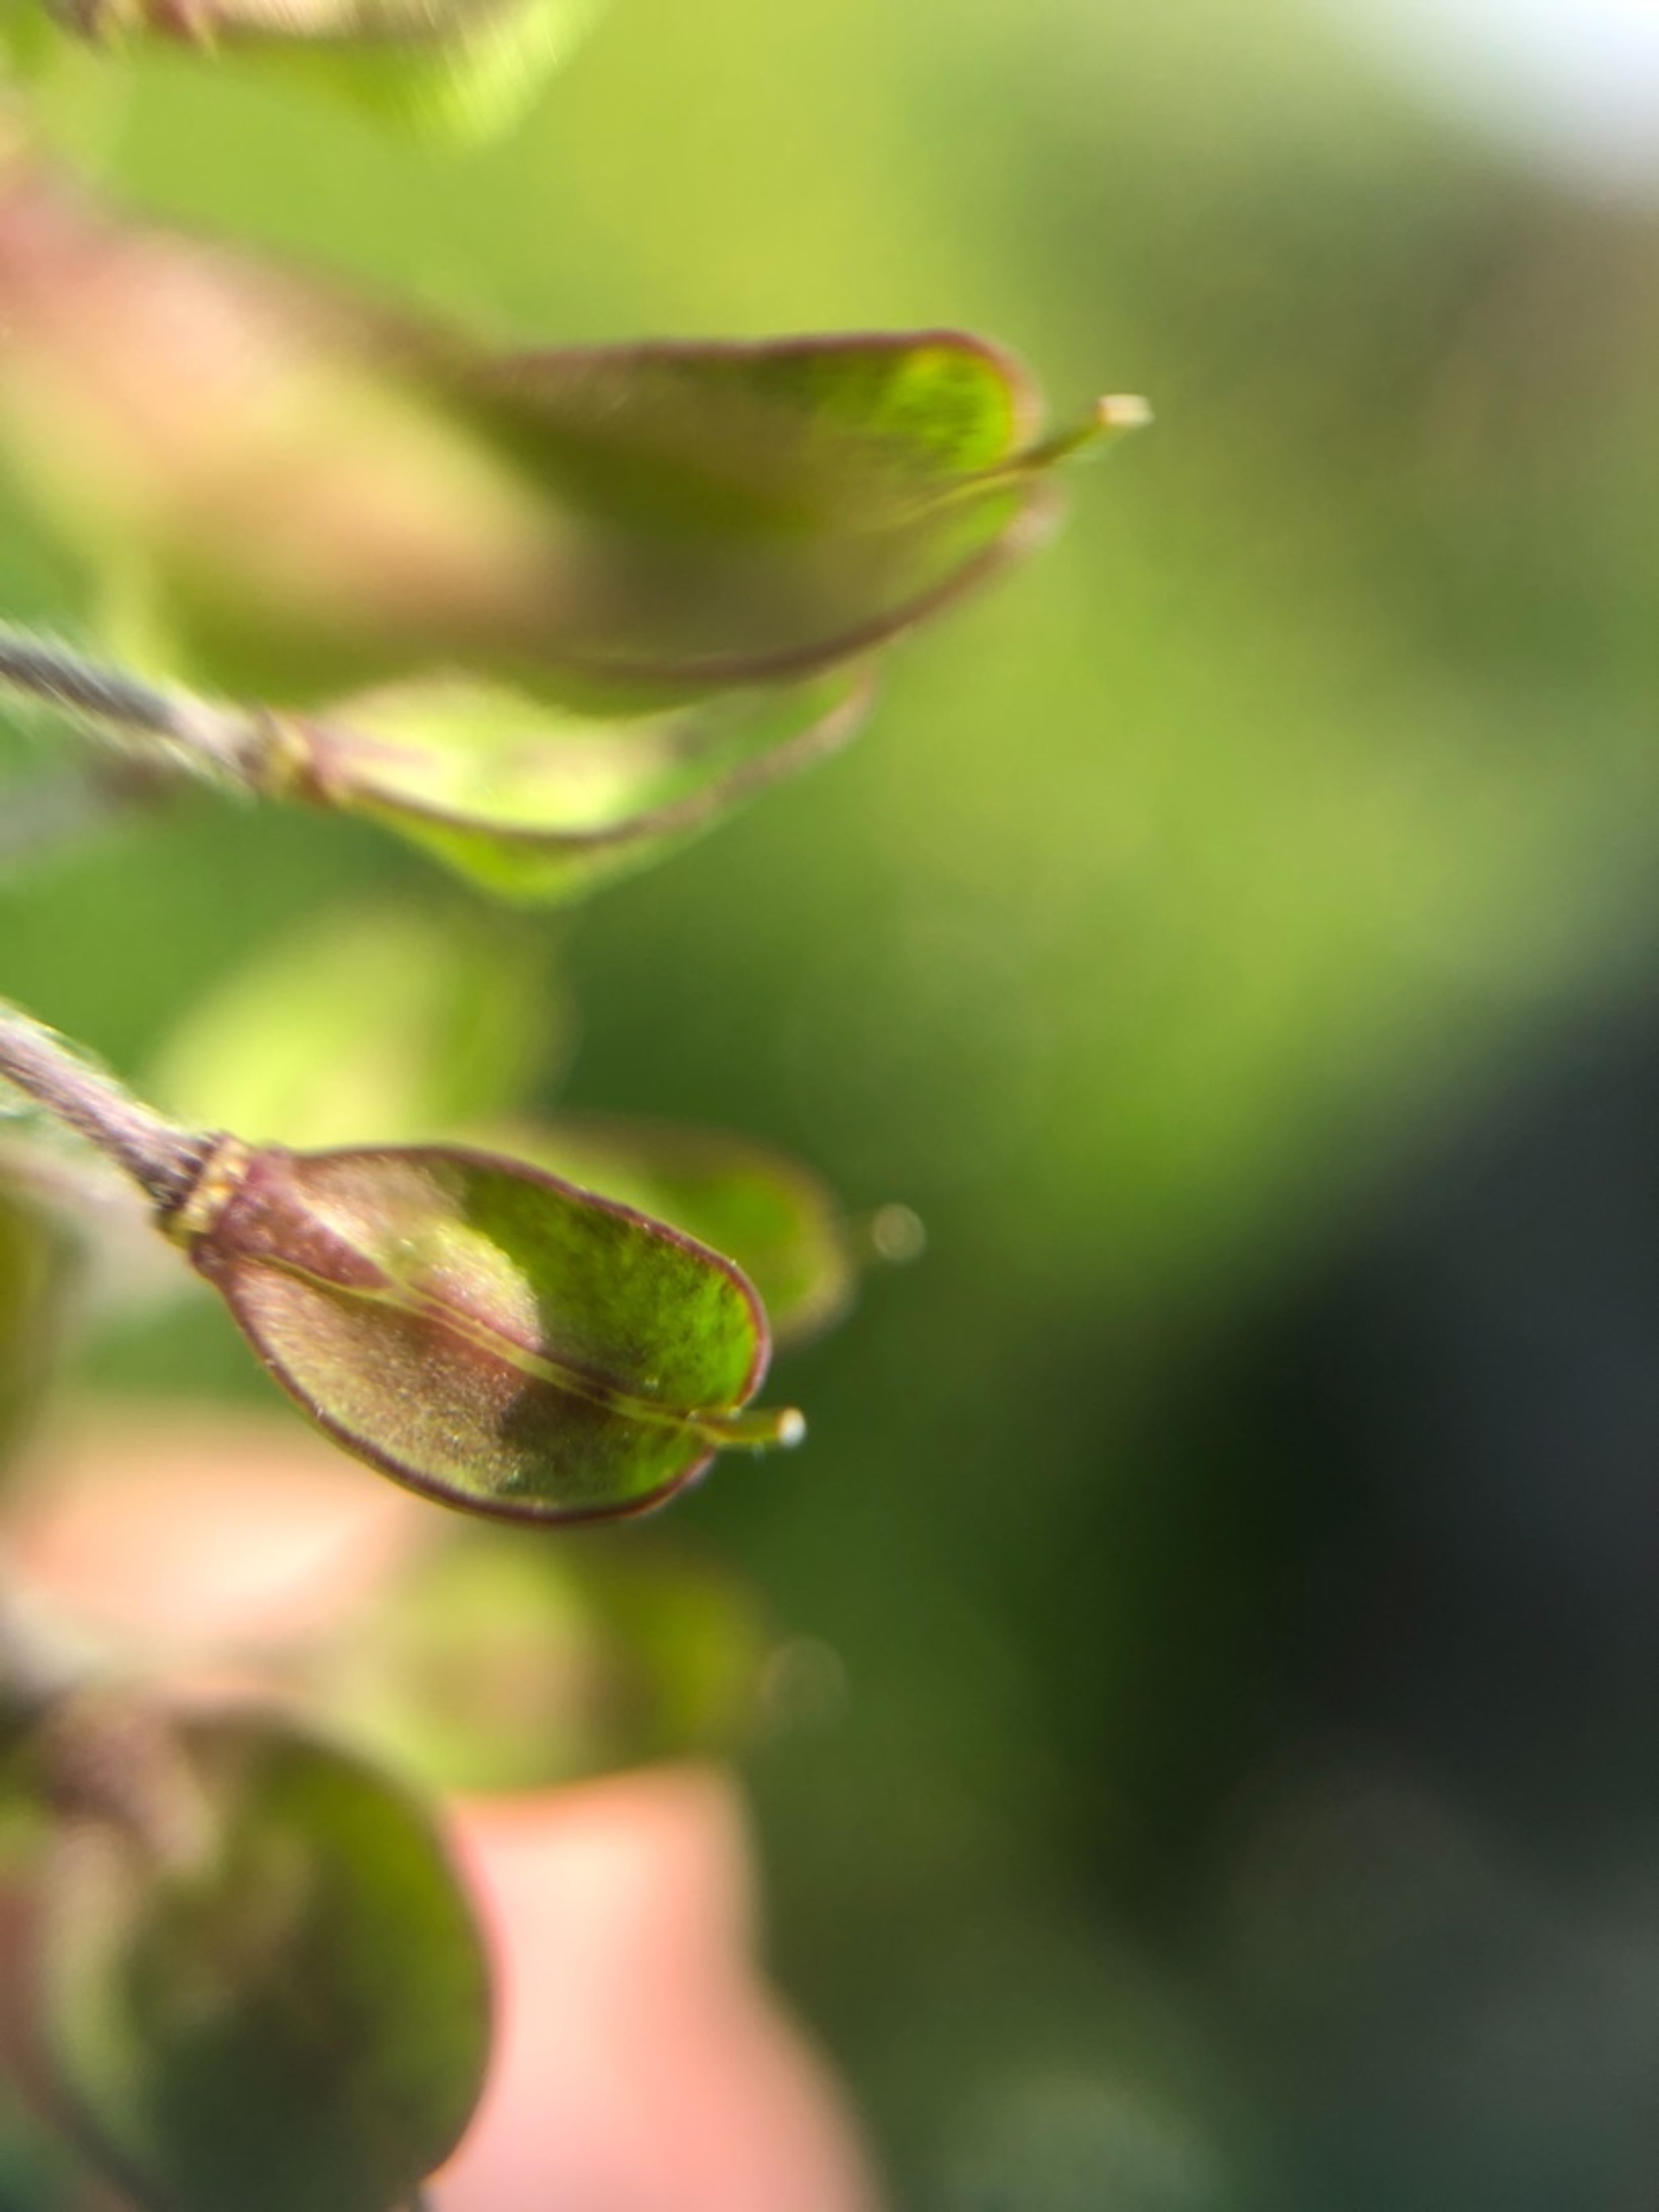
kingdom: Plantae
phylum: Tracheophyta
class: Magnoliopsida
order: Brassicales
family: Brassicaceae
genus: Lepidium
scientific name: Lepidium campestre
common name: Salomons lysestage
